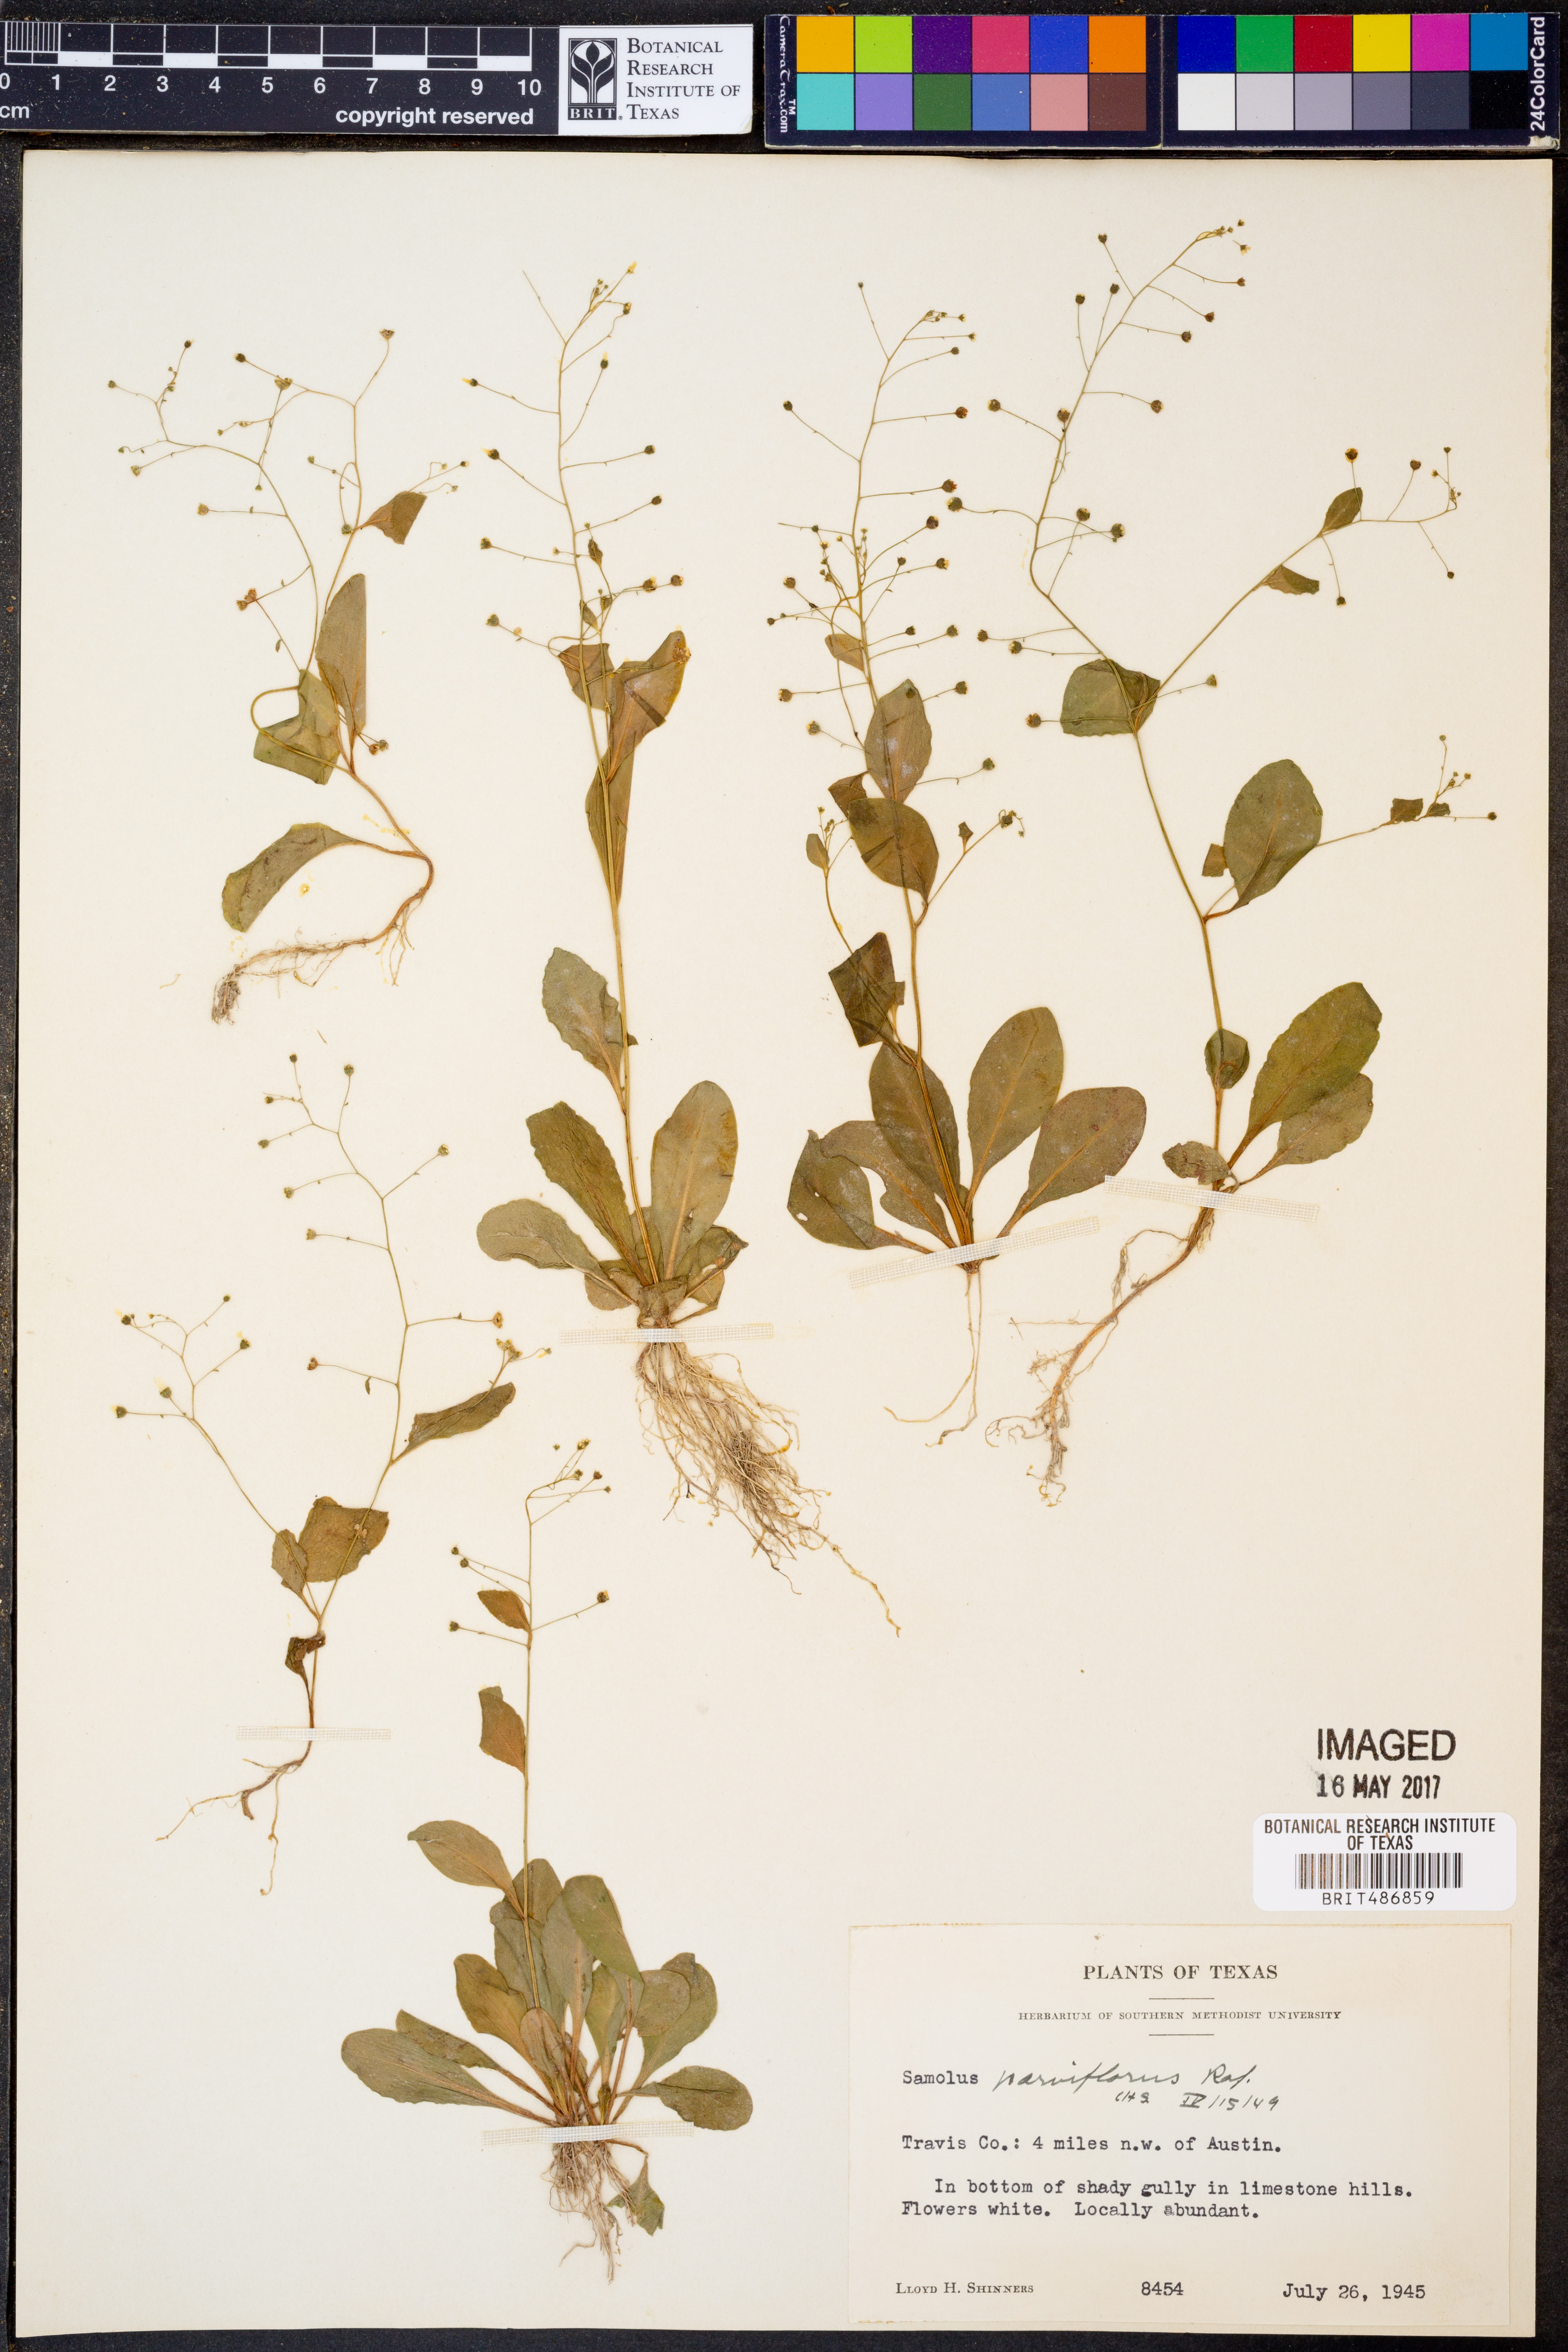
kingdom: Plantae
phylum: Tracheophyta
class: Magnoliopsida
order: Ericales
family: Primulaceae
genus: Samolus
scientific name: Samolus parviflorus
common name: False water pimpernel
